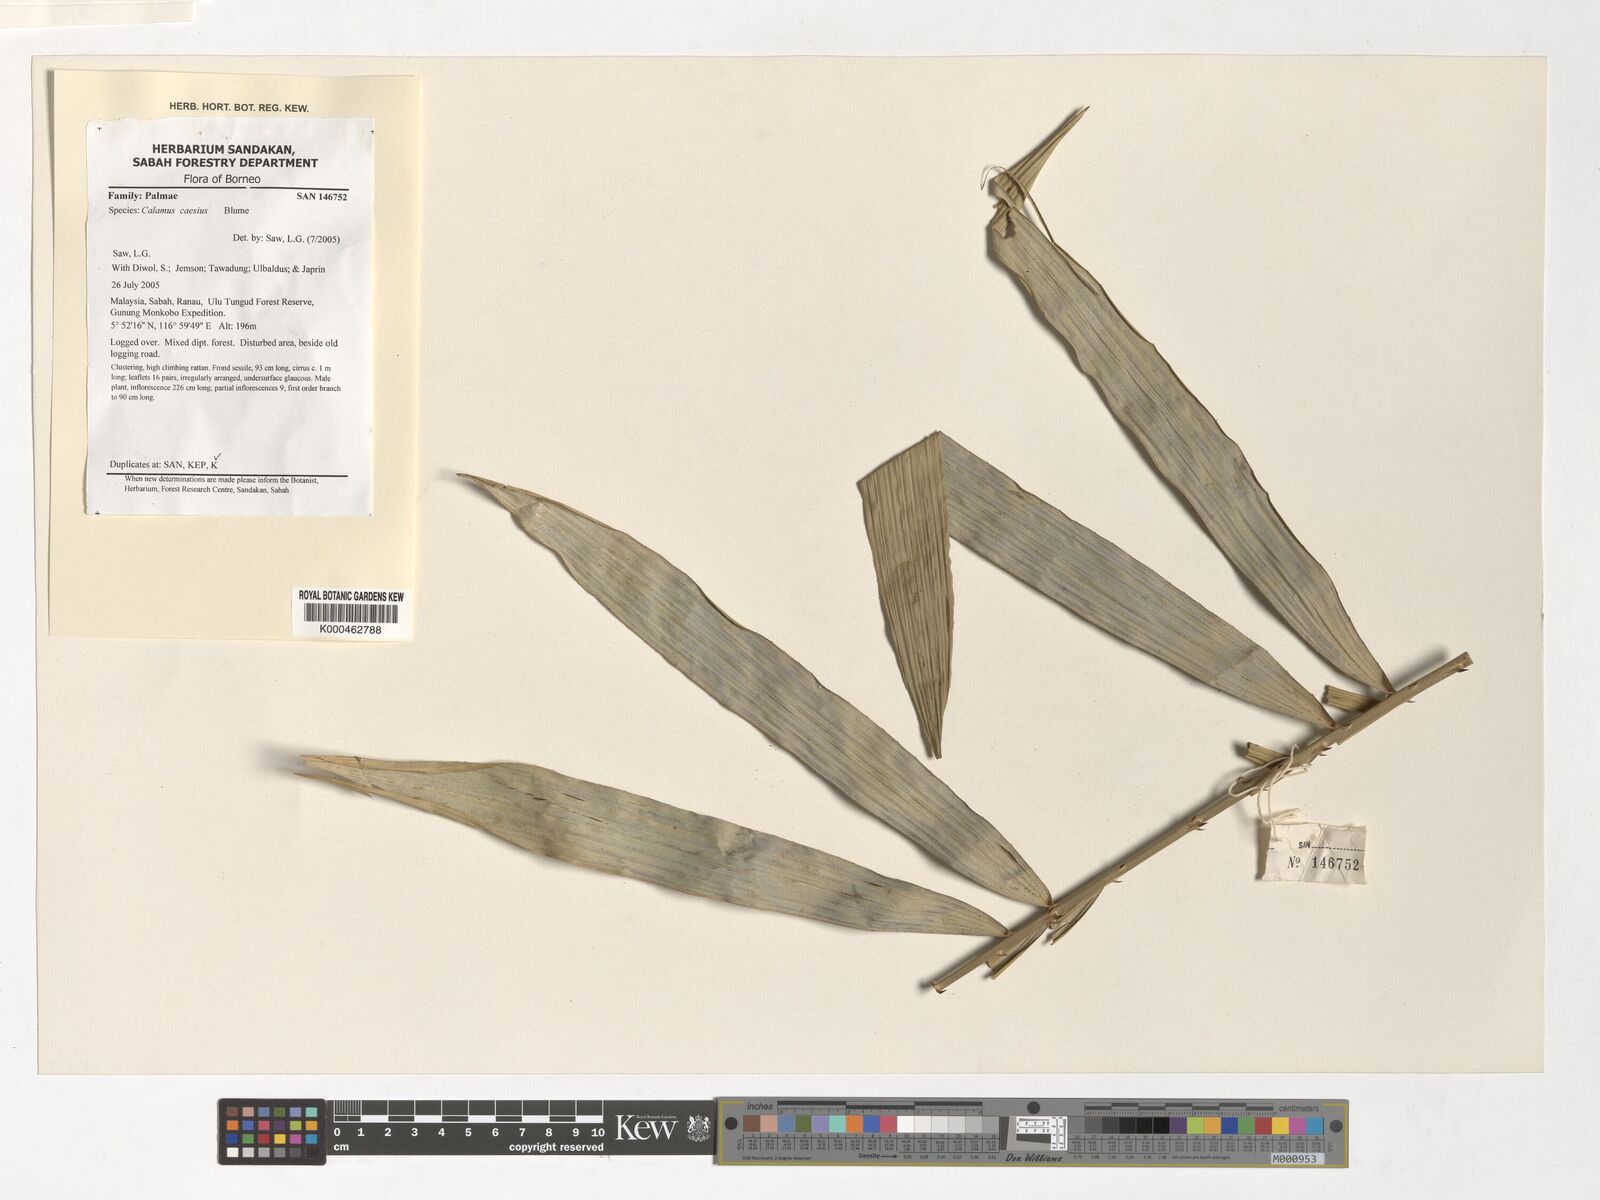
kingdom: Plantae
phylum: Tracheophyta
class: Liliopsida
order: Arecales
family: Arecaceae
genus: Calamus
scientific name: Calamus caesius
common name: Rattan palm
